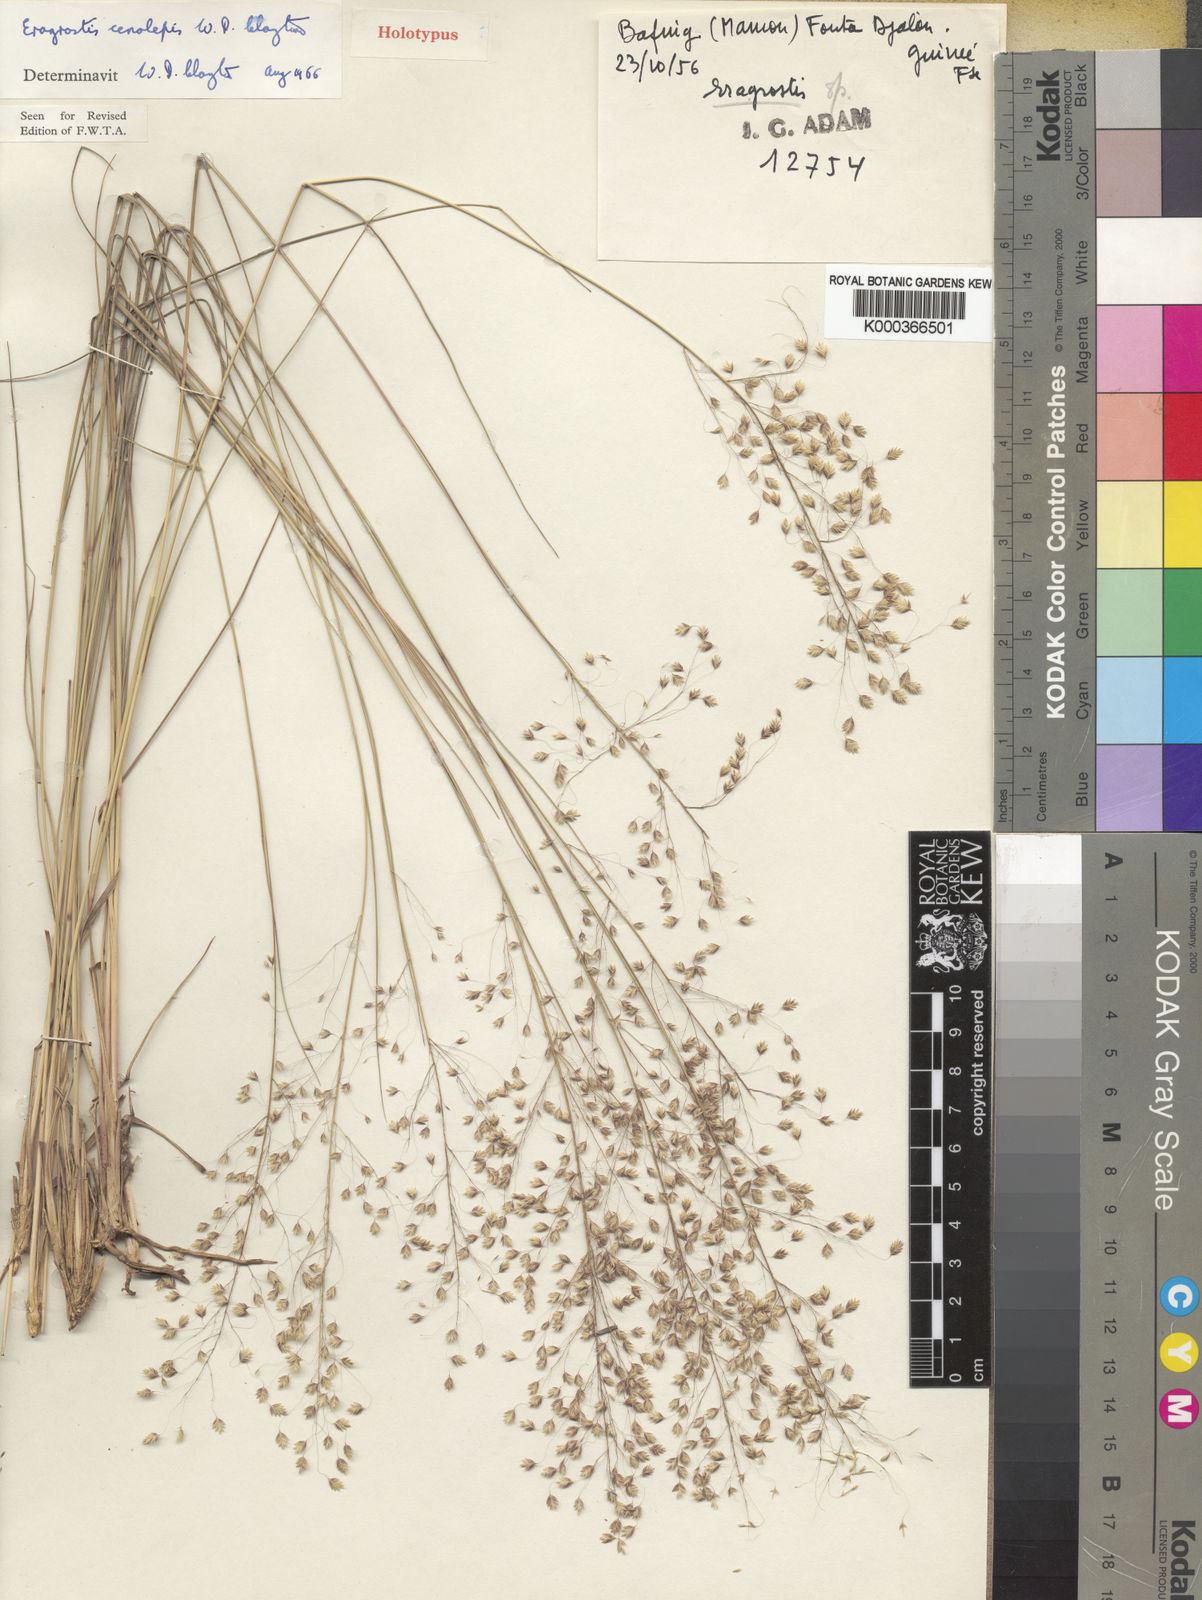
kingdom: Plantae
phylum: Tracheophyta
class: Liliopsida
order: Poales
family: Poaceae
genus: Eragrostis
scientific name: Eragrostis cenolepis
